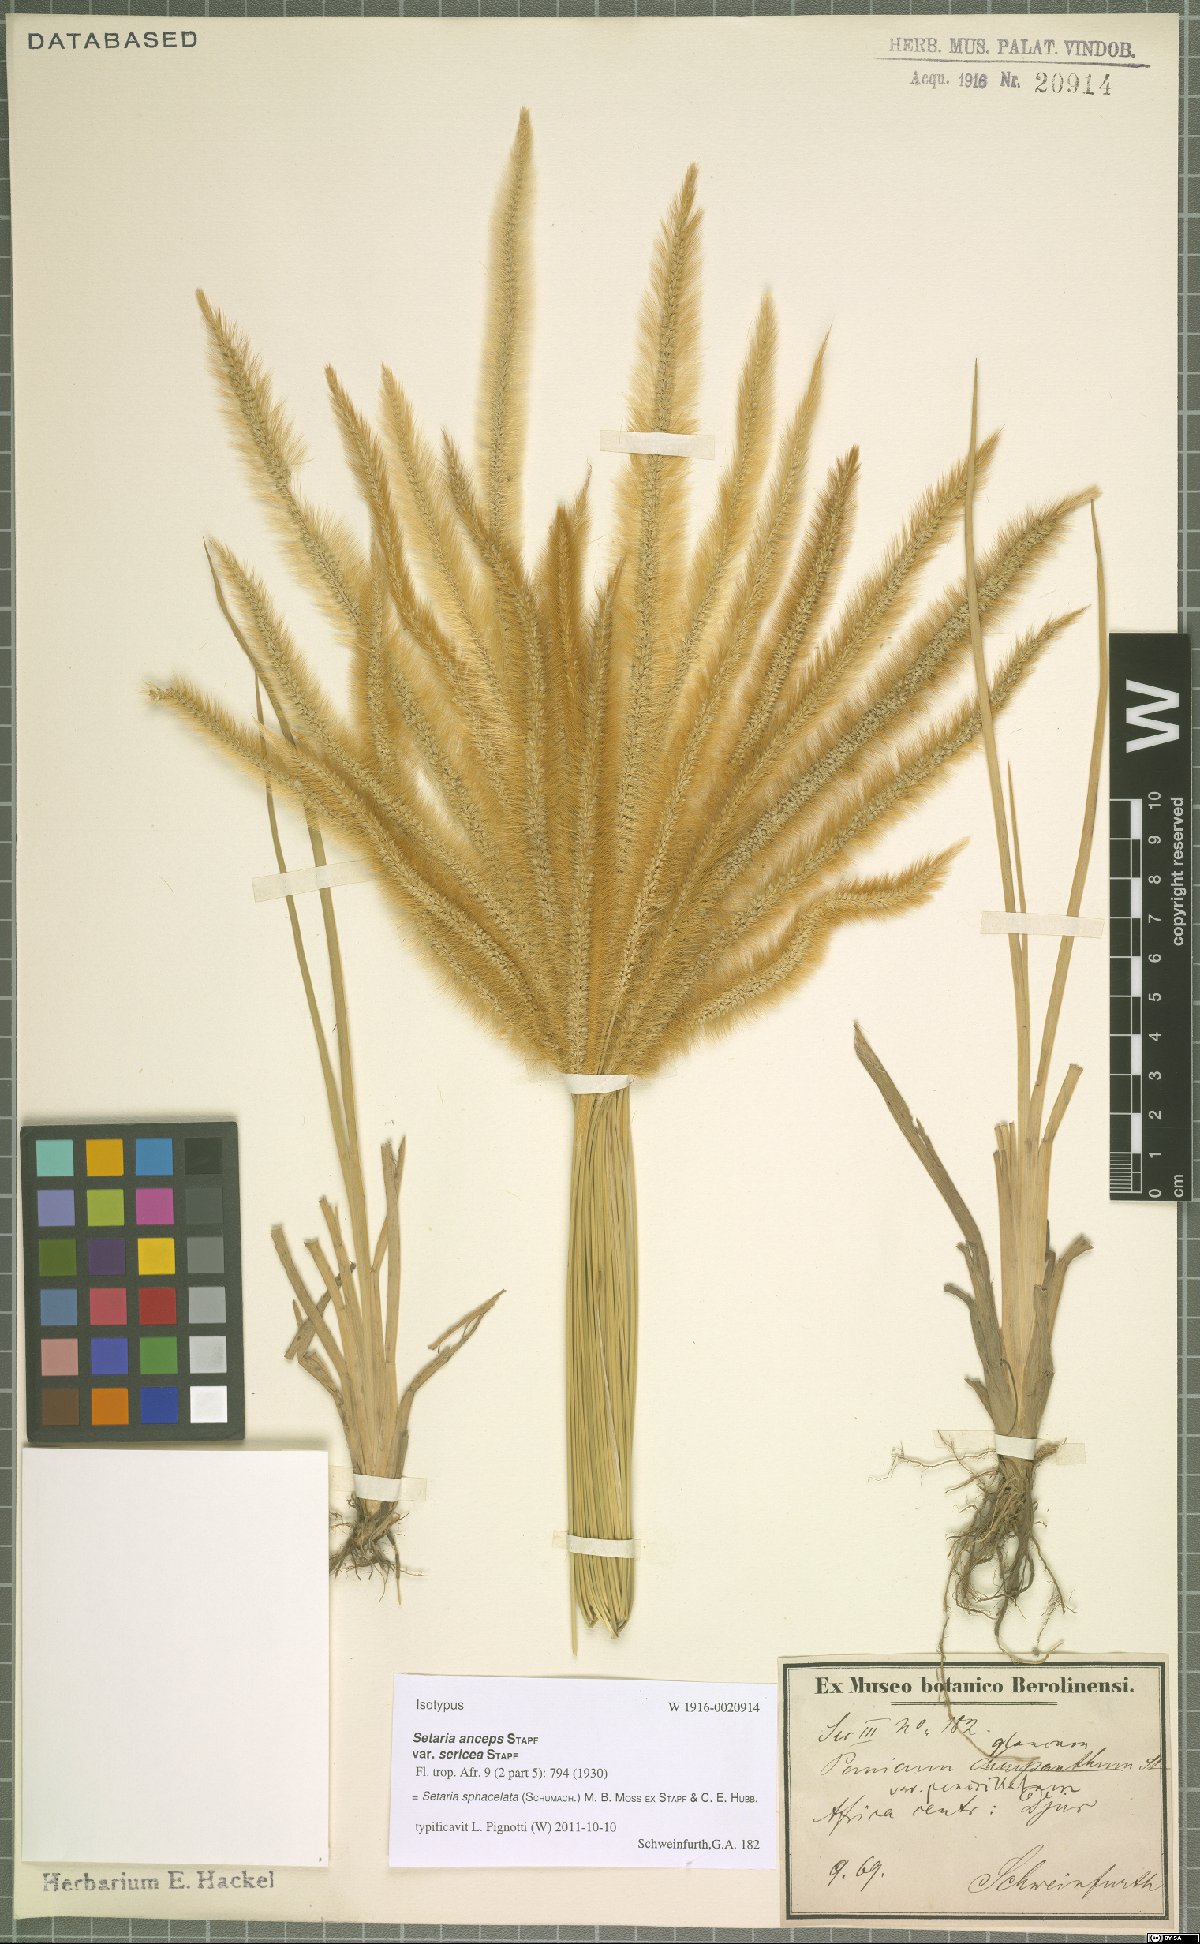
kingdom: Plantae
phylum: Tracheophyta
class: Liliopsida
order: Poales
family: Poaceae
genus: Setaria
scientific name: Setaria sphacelata
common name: African bristlegrass
